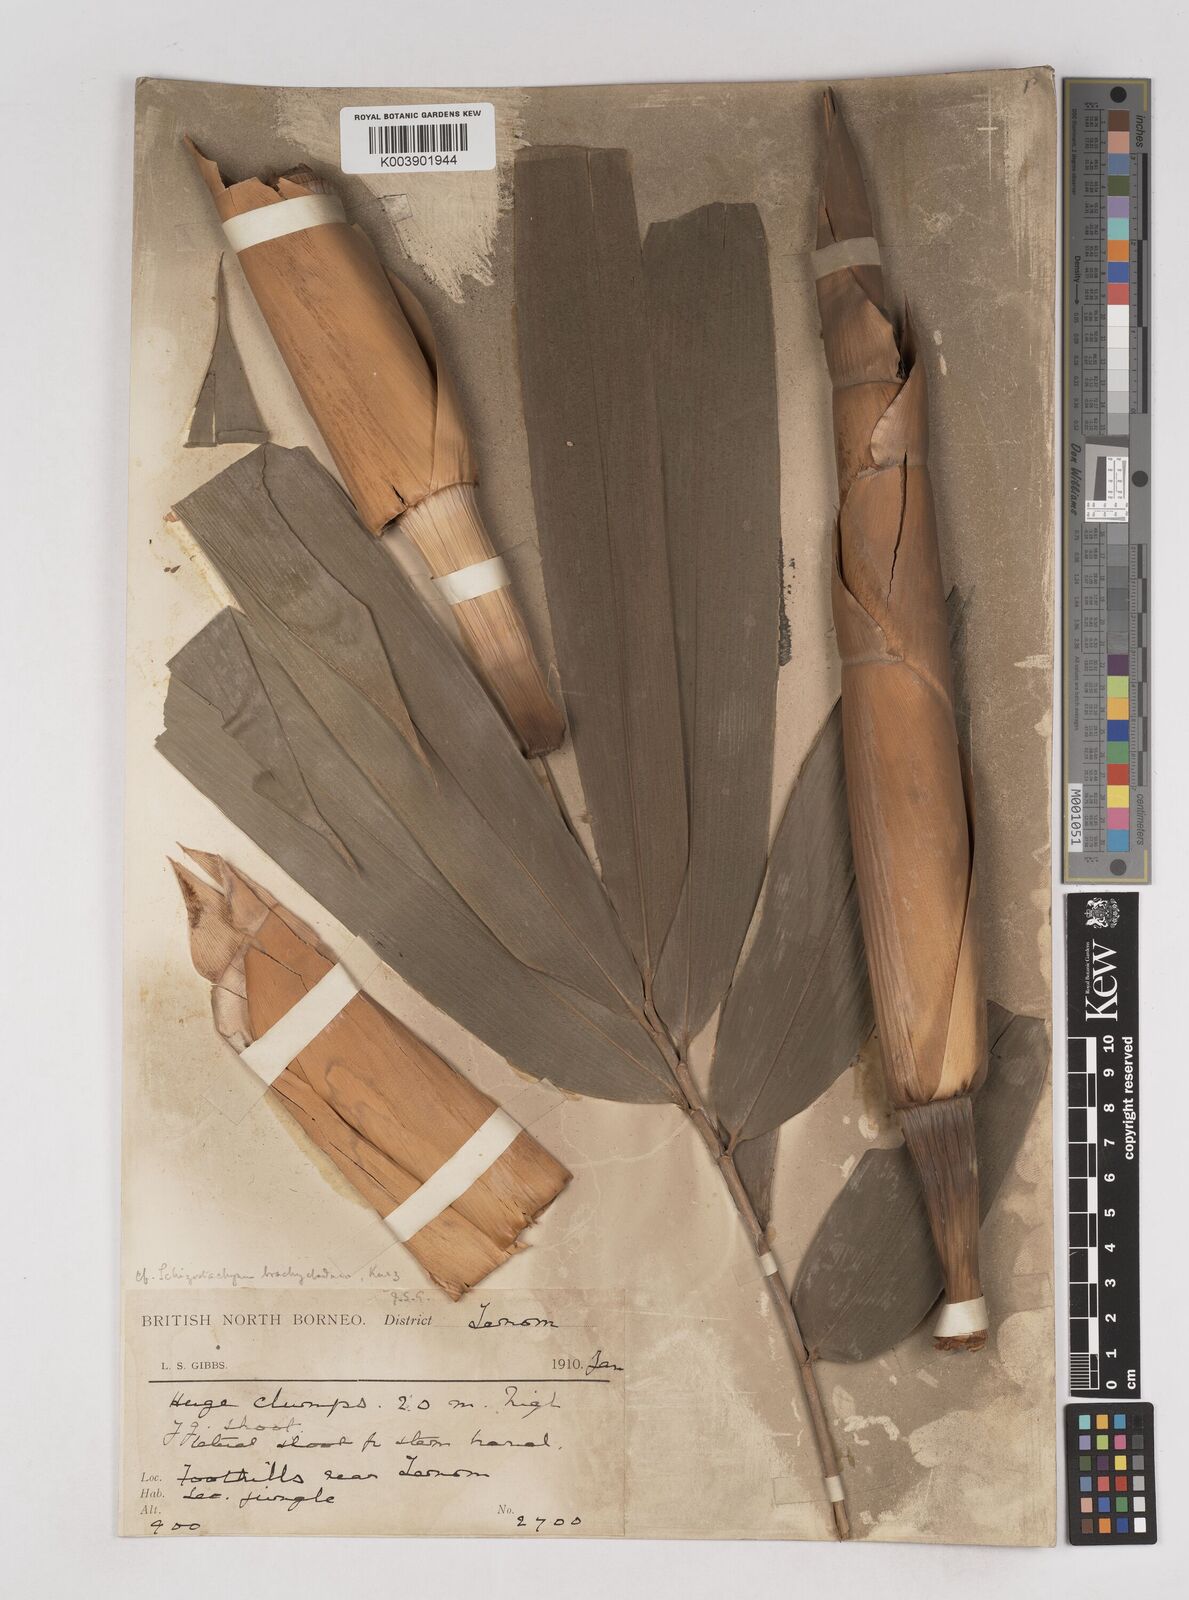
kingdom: Plantae
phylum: Tracheophyta
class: Liliopsida
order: Poales
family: Poaceae
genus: Schizostachyum
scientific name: Schizostachyum brachycladum
